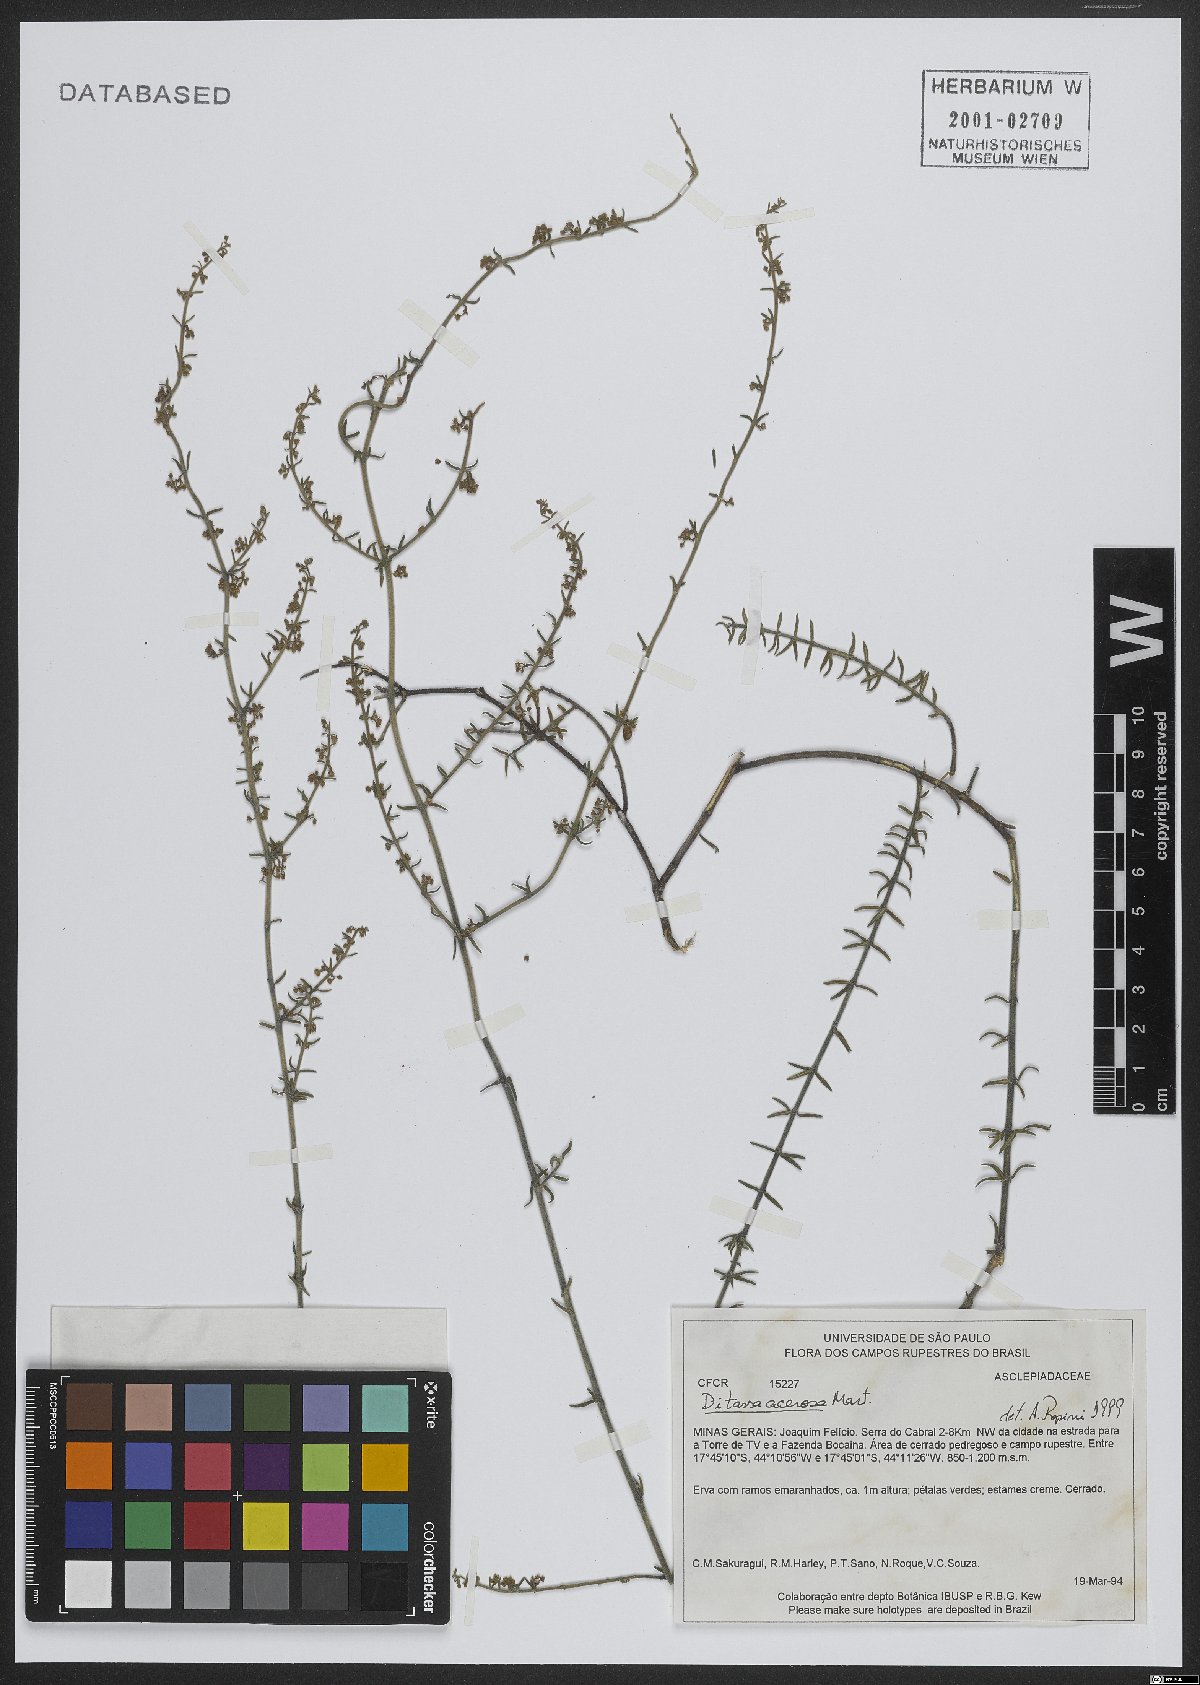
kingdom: Plantae
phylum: Tracheophyta
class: Magnoliopsida
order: Gentianales
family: Apocynaceae
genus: Minaria
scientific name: Minaria acerosa
